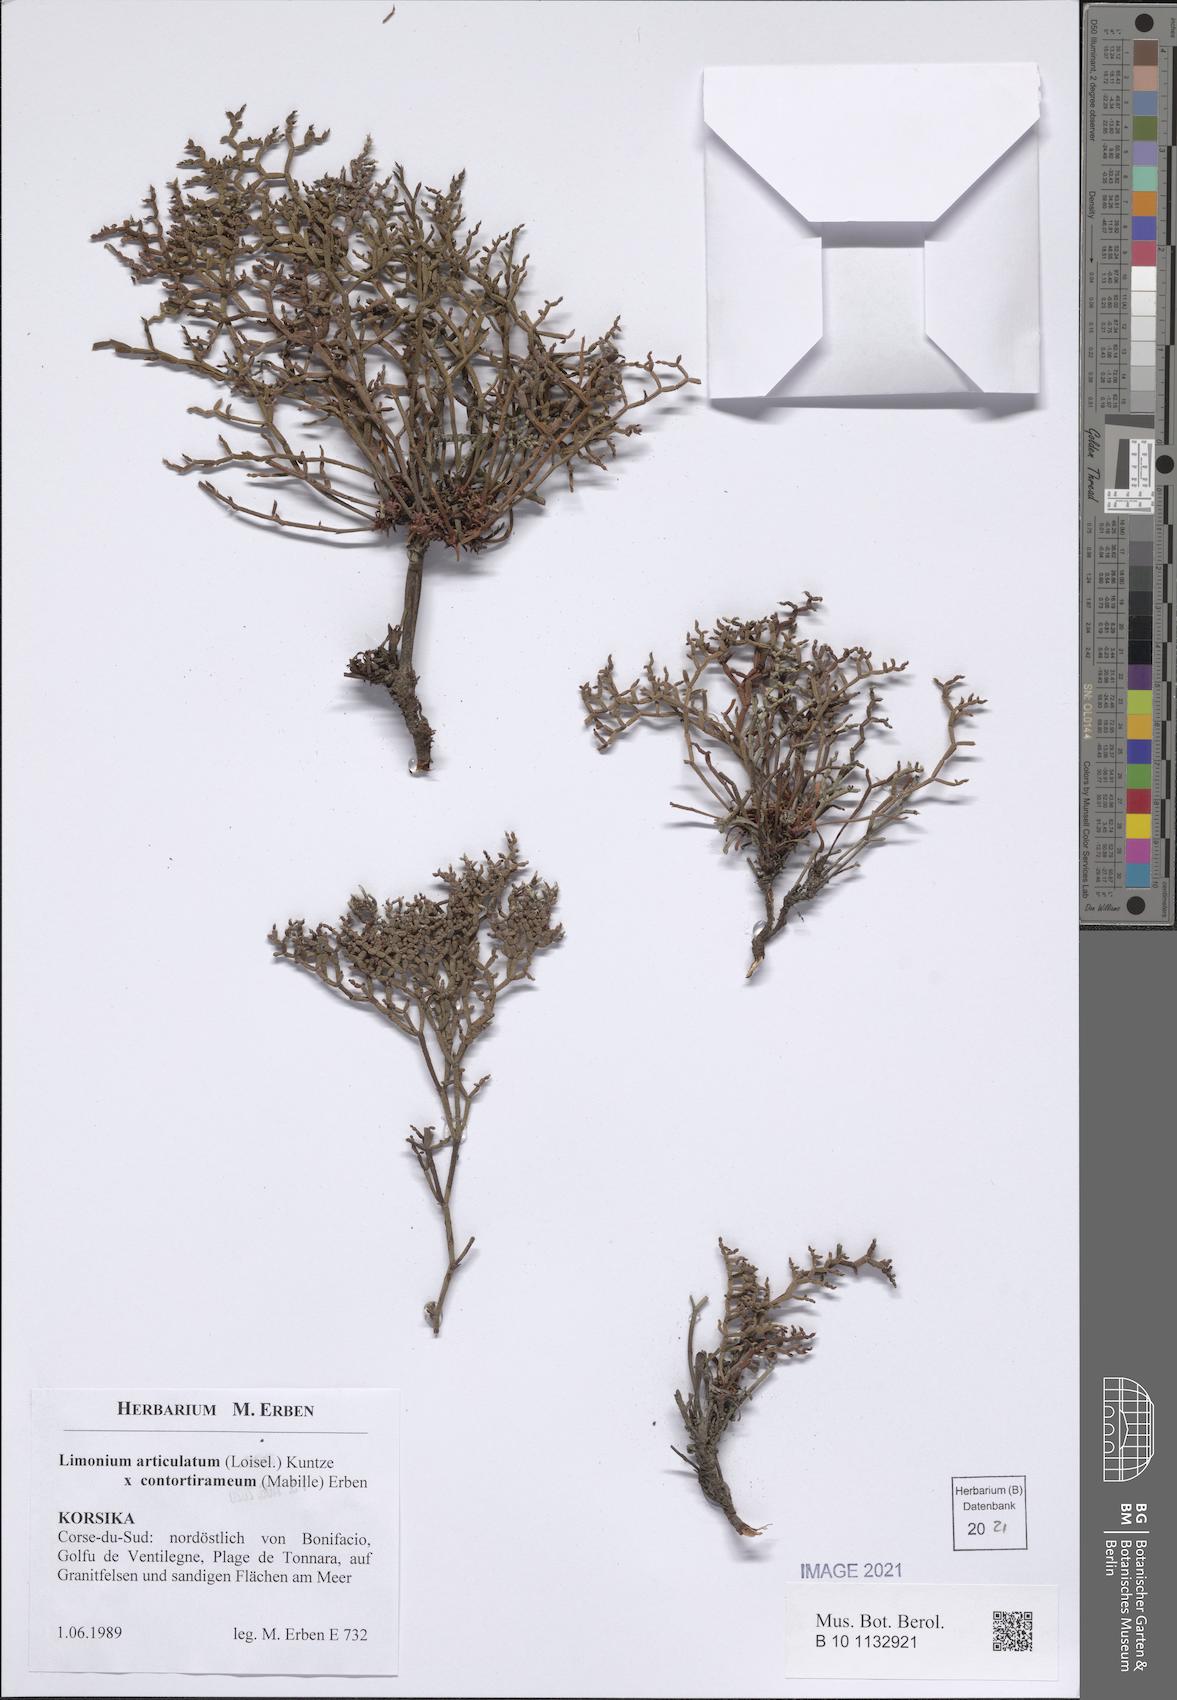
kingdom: Plantae
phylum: Tracheophyta
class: Magnoliopsida
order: Caryophyllales
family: Plumbaginaceae
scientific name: Plumbaginaceae
